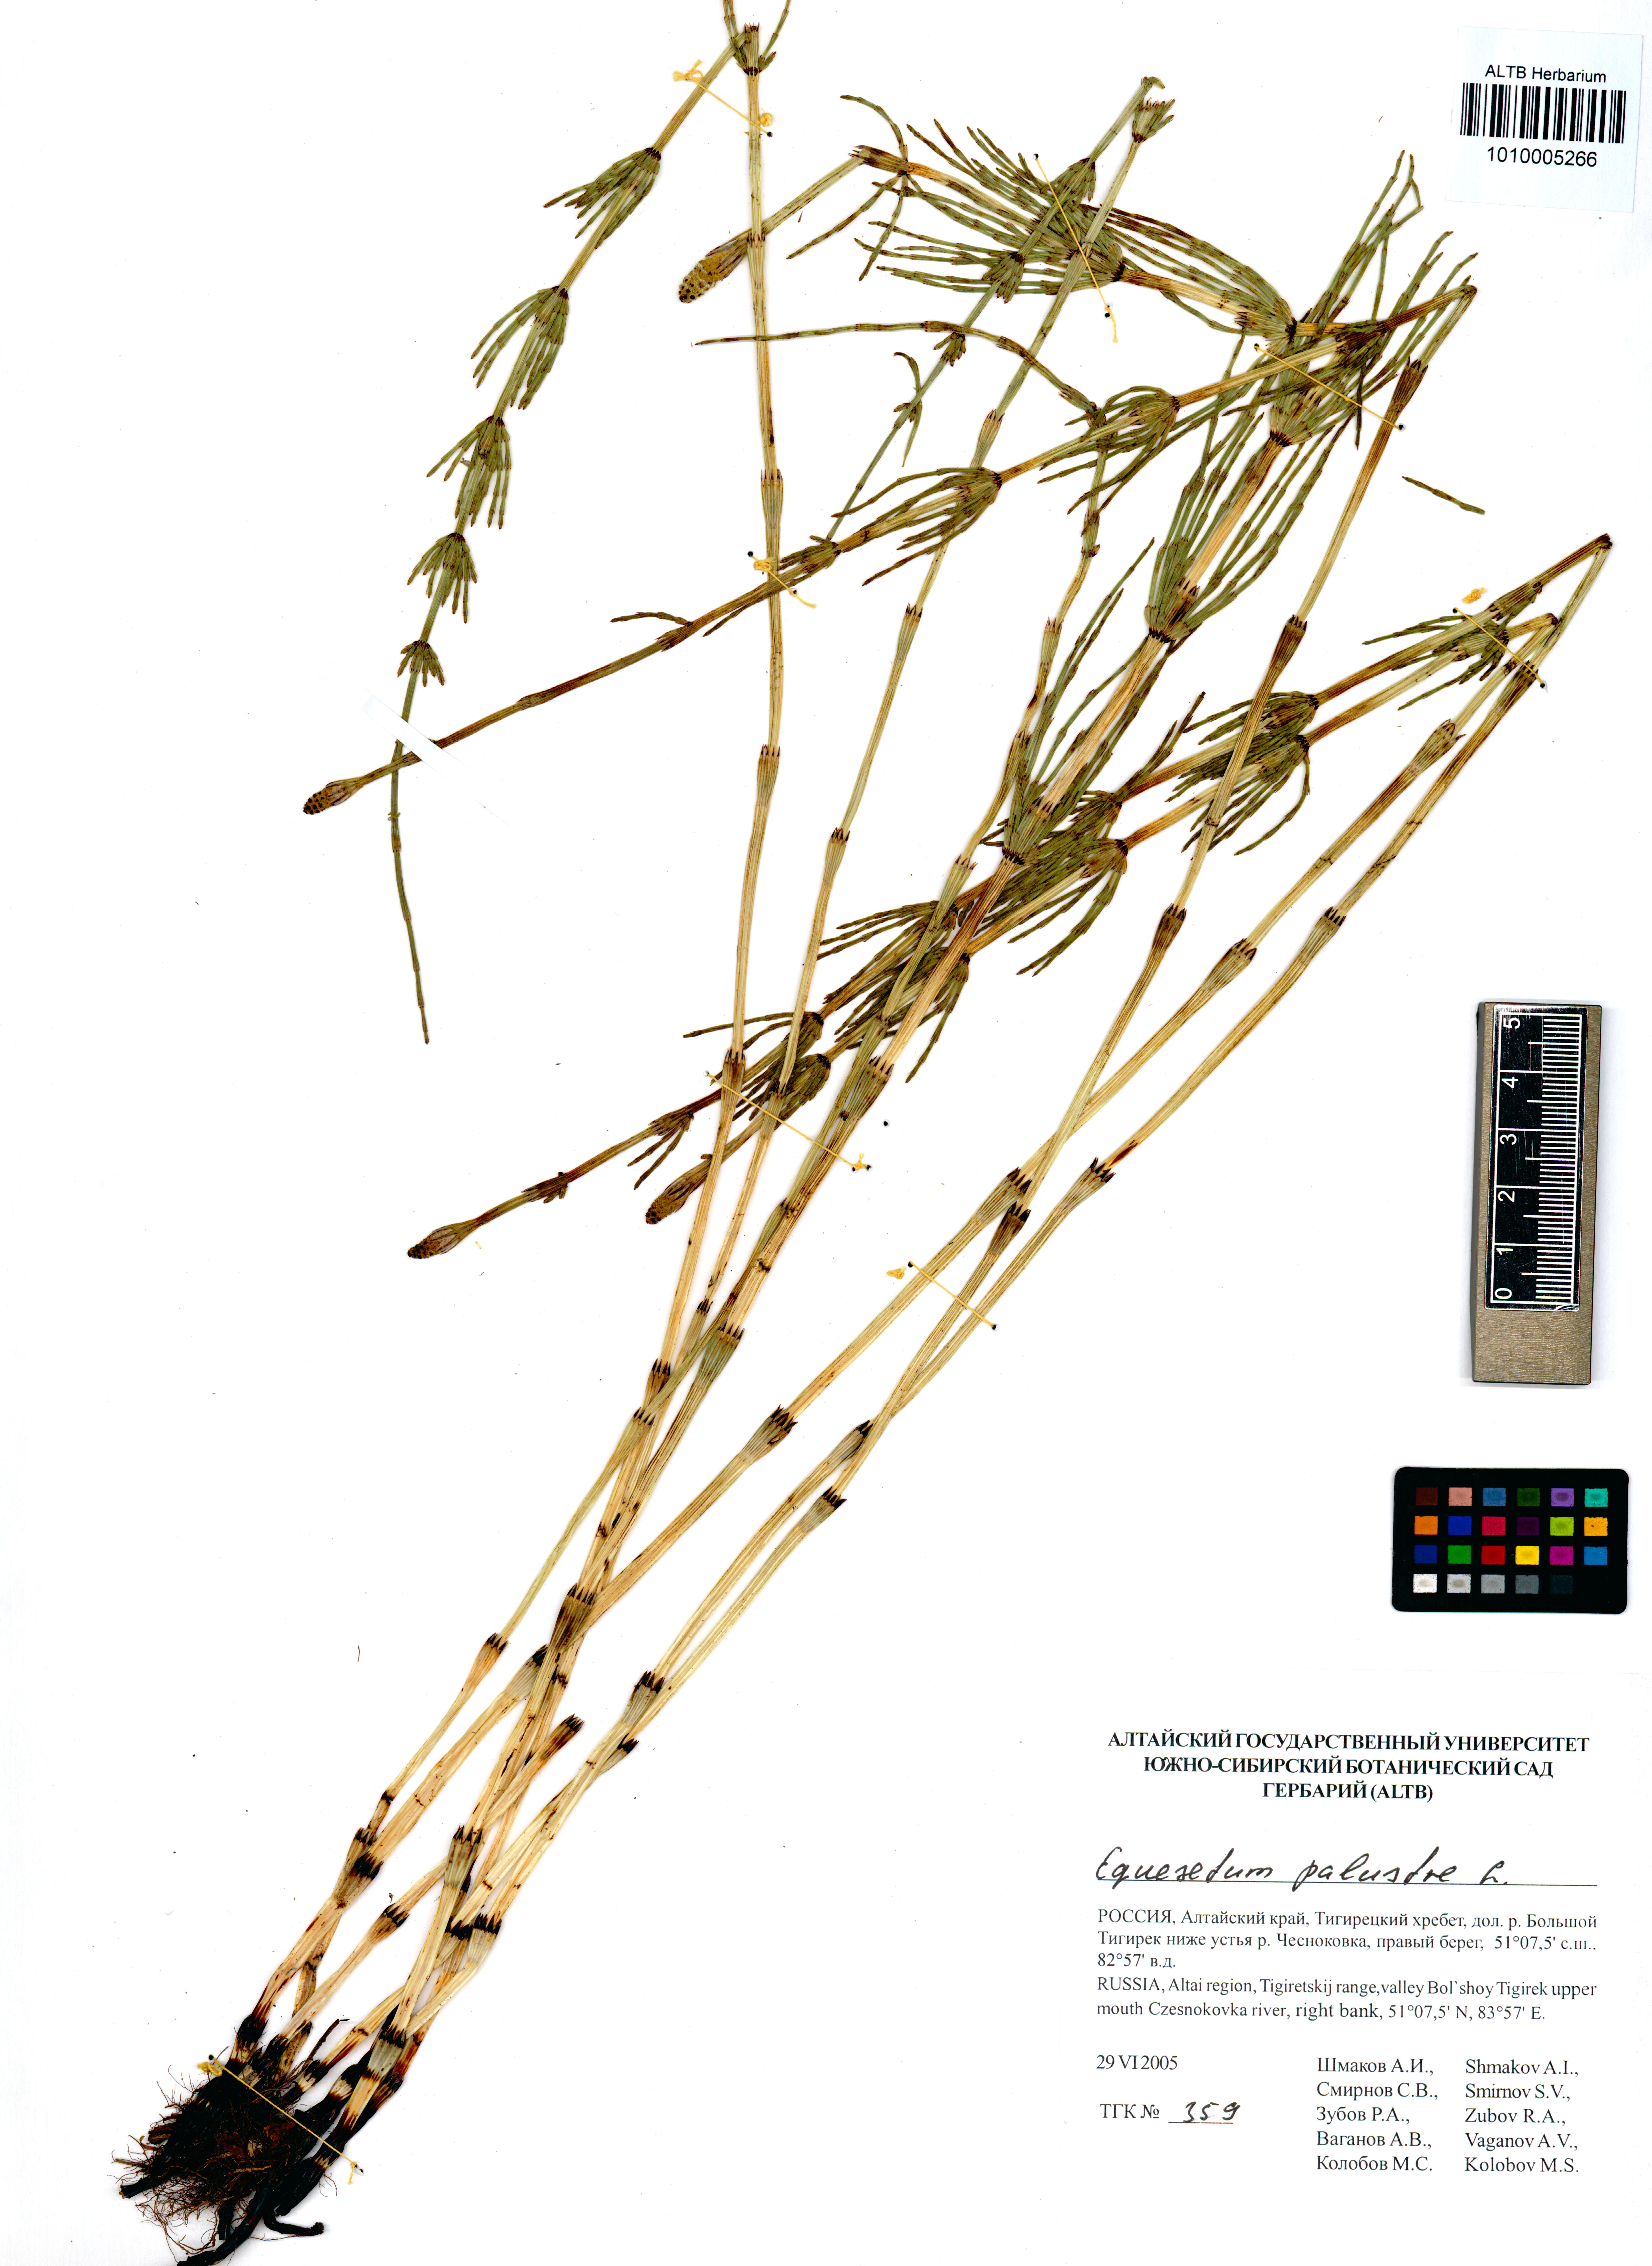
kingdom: Plantae
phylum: Tracheophyta
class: Polypodiopsida
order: Equisetales
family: Equisetaceae
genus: Equisetum
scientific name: Equisetum palustre
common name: Marsh horsetail
